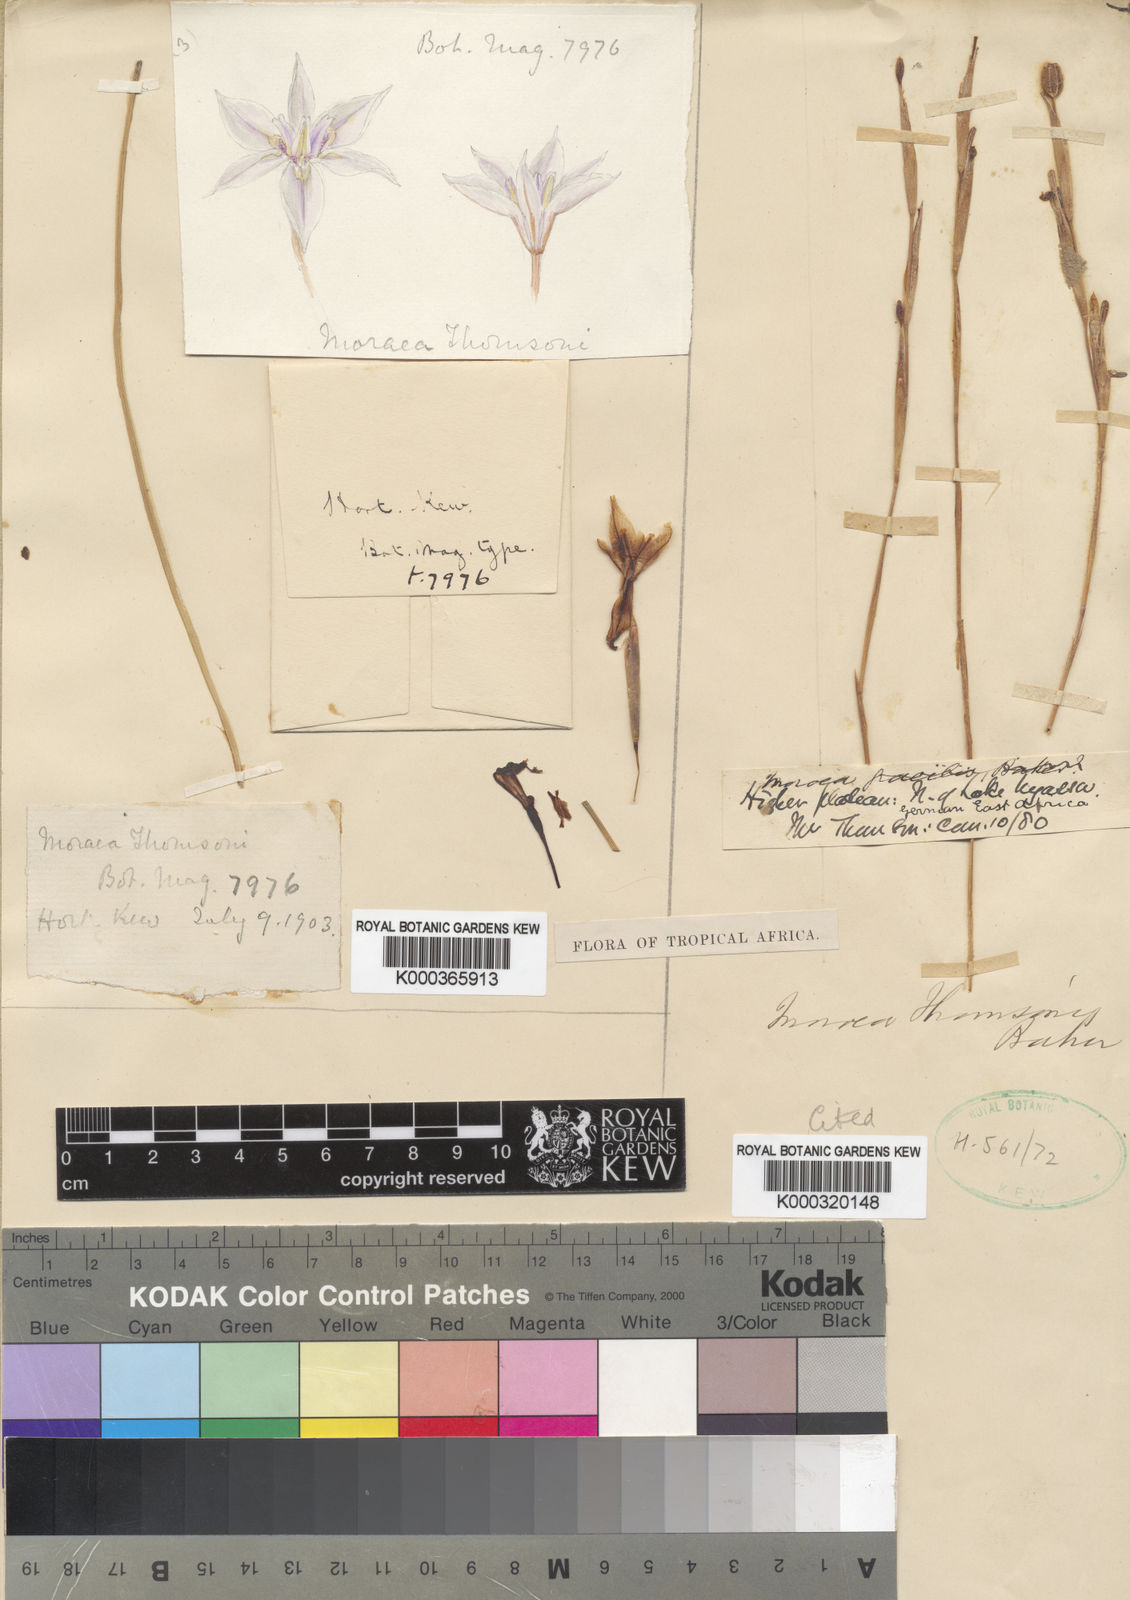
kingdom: Plantae
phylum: Tracheophyta
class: Liliopsida
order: Asparagales
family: Iridaceae
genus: Moraea
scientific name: Moraea thomsonii
